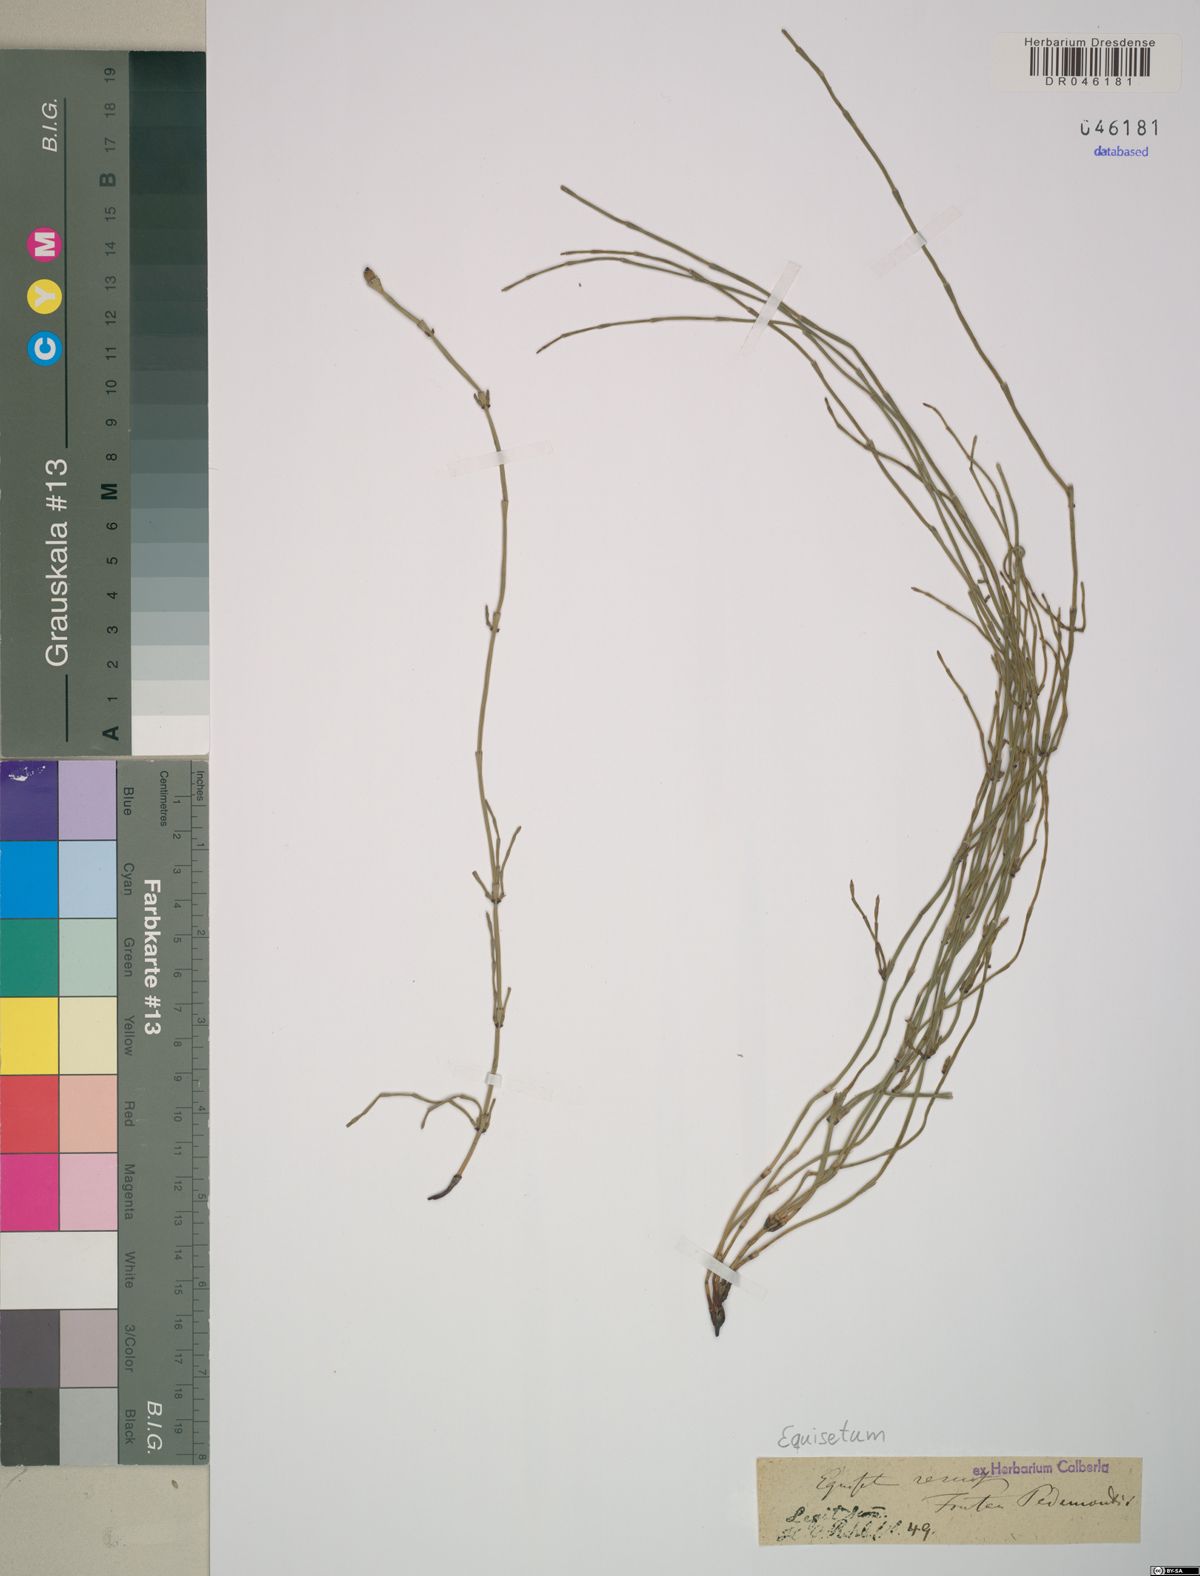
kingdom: Plantae
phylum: Tracheophyta
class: Polypodiopsida
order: Equisetales
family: Equisetaceae
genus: Equisetum
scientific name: Equisetum ramosissimum
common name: Branched horsetail
